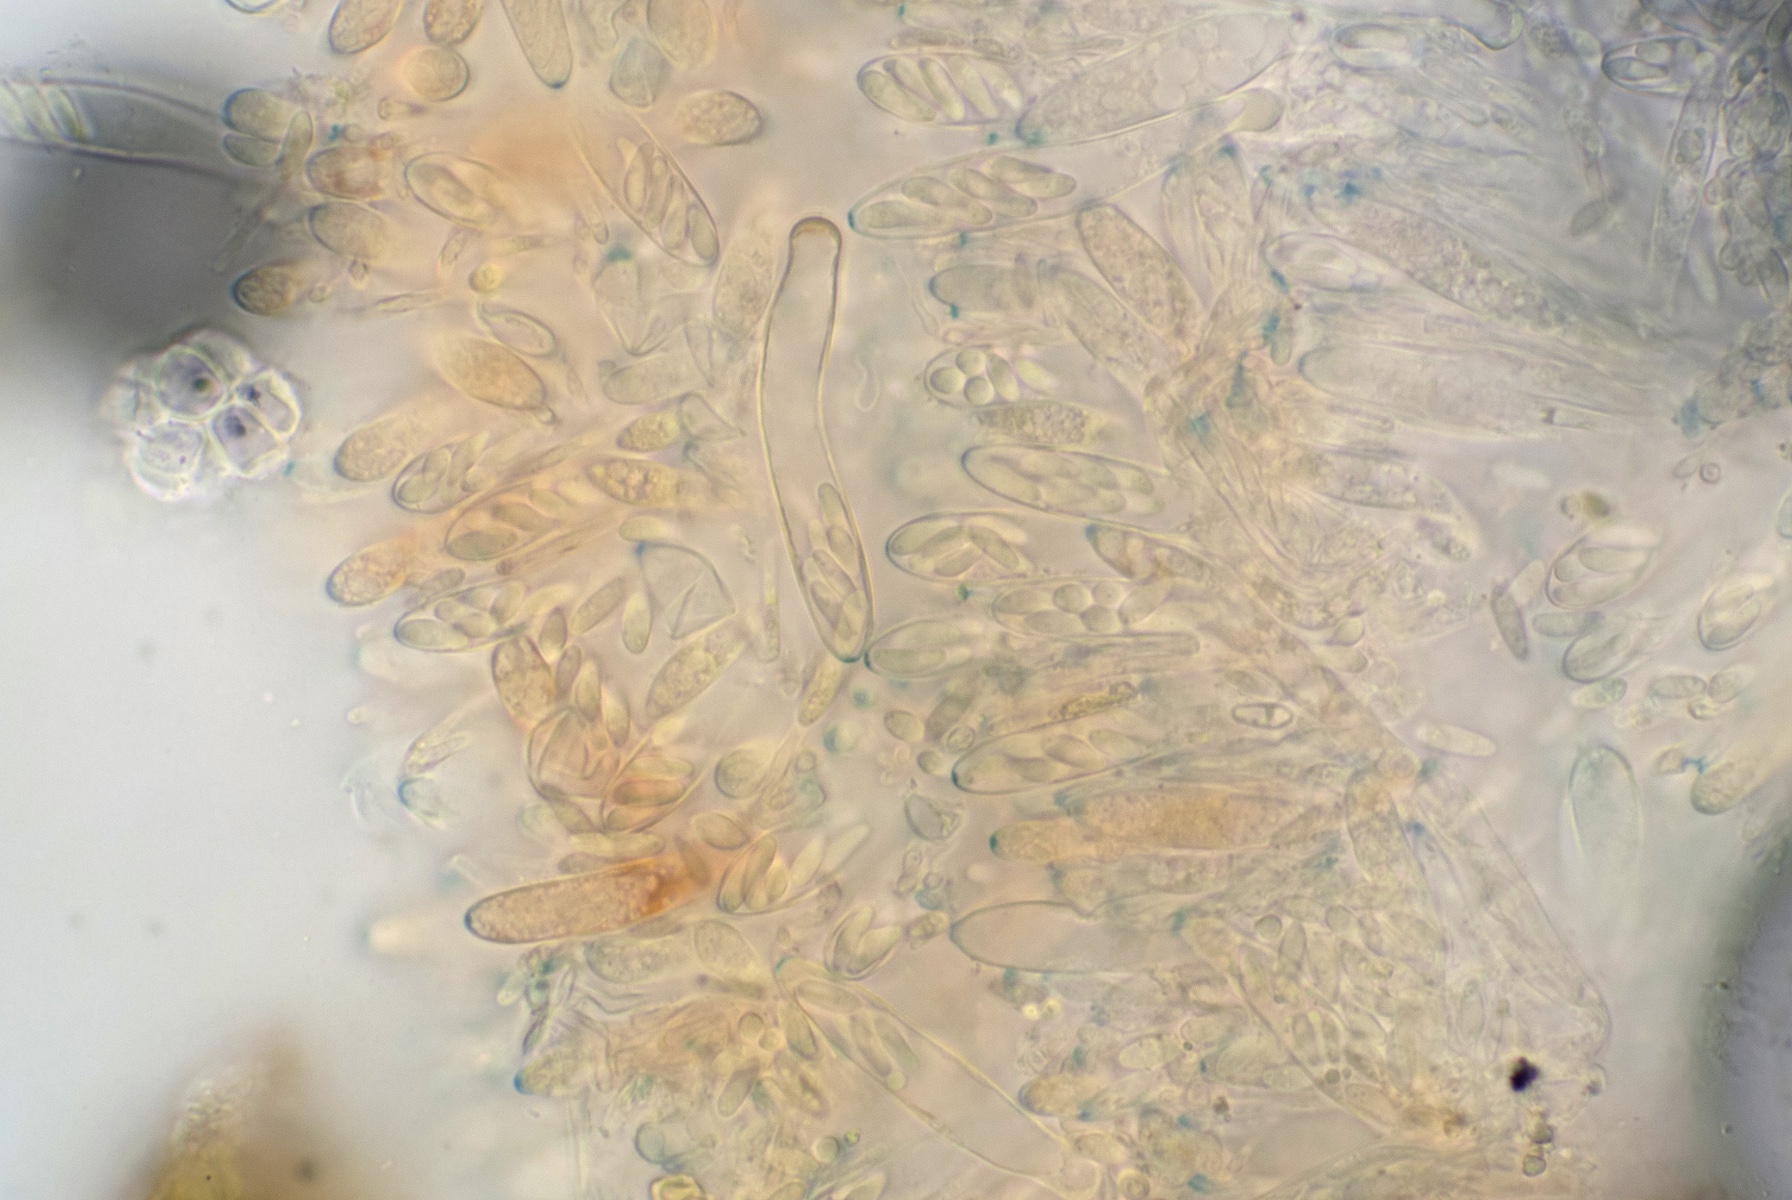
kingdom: Fungi
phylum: Ascomycota
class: Leotiomycetes
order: Helotiales
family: Hyaloscyphaceae
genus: Eupezizella
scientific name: Eupezizella aureliella
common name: almindelig klarskive
